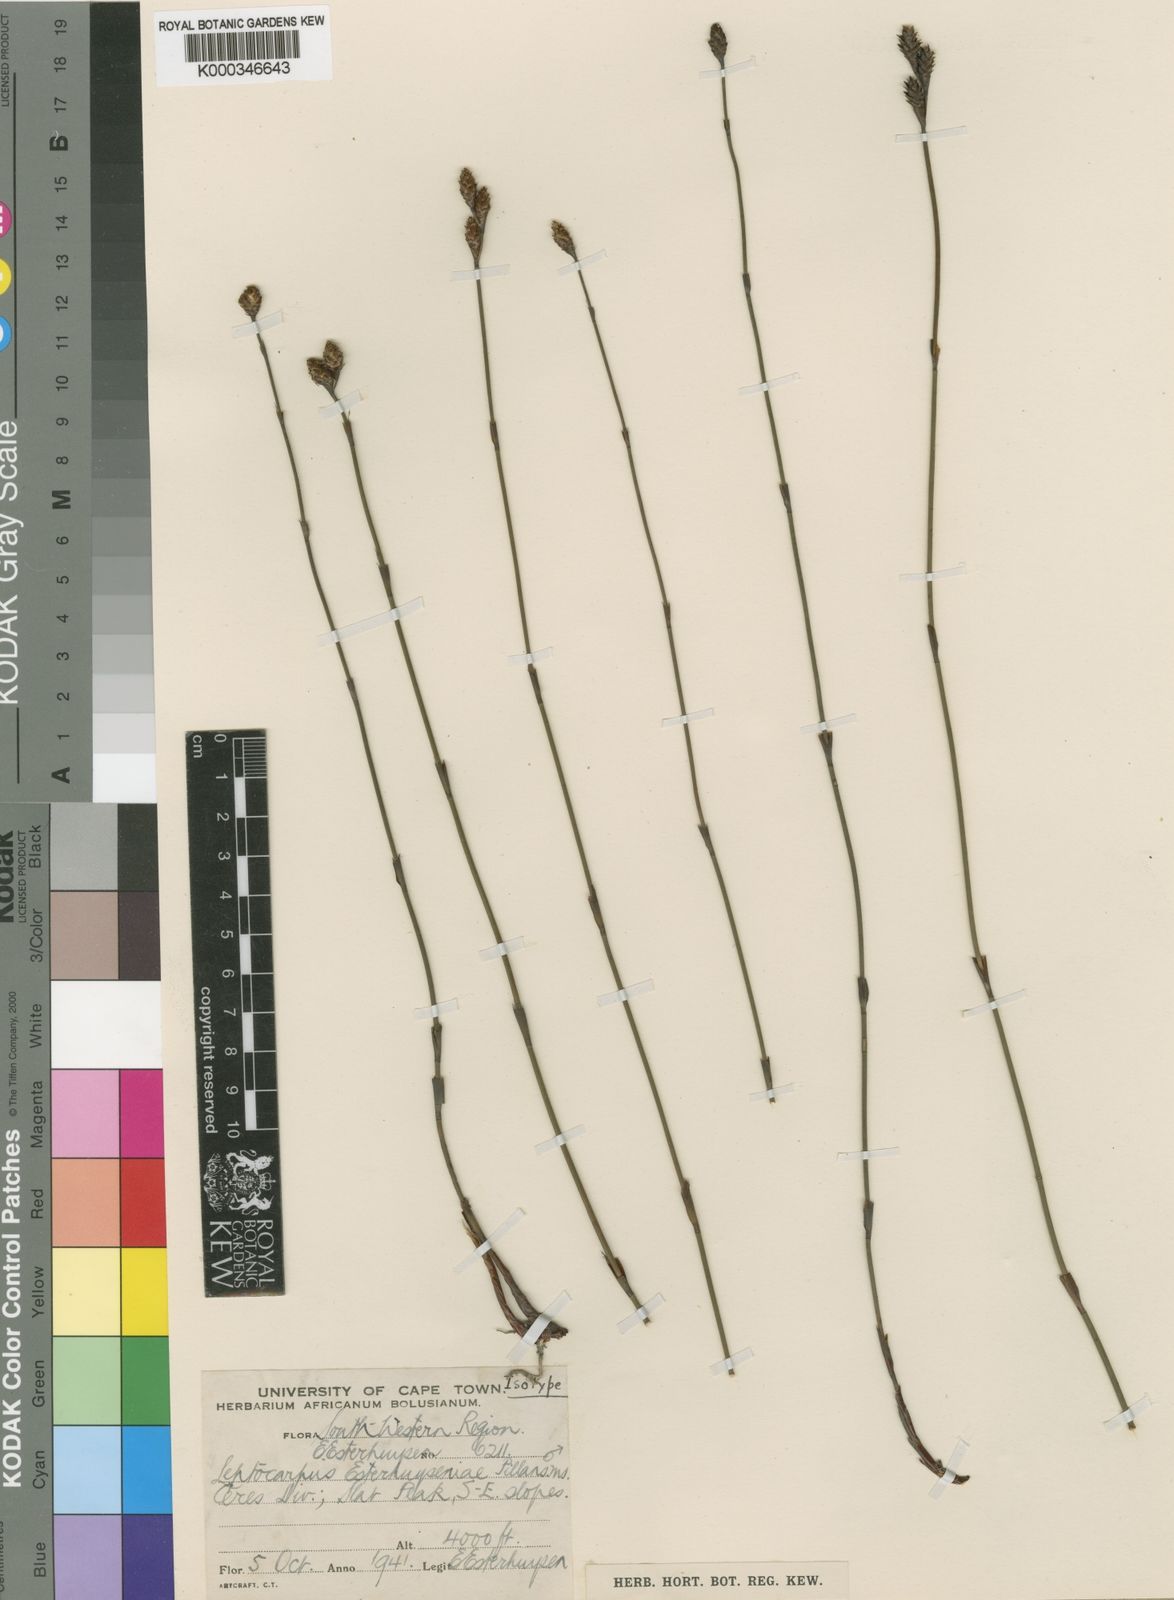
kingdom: Plantae
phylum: Tracheophyta
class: Liliopsida
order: Poales
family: Restionaceae
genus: Restio
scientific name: Restio distylis
